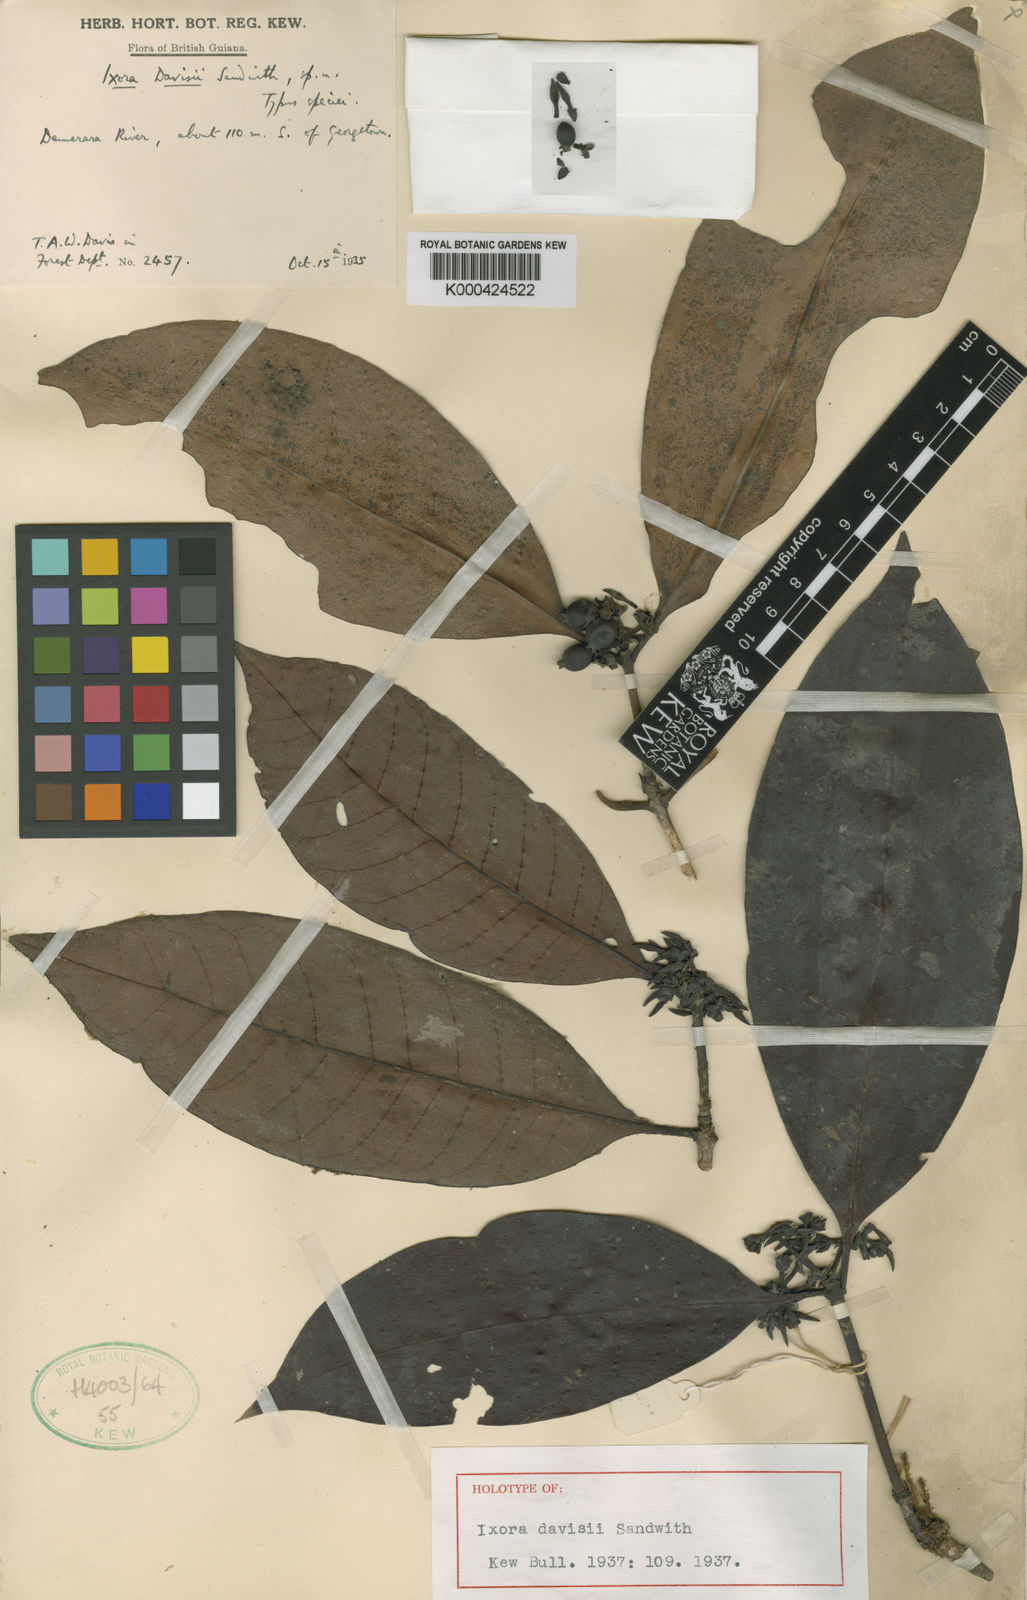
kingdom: Plantae
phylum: Tracheophyta
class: Magnoliopsida
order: Gentianales
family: Rubiaceae
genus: Ixora
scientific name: Ixora davisii
